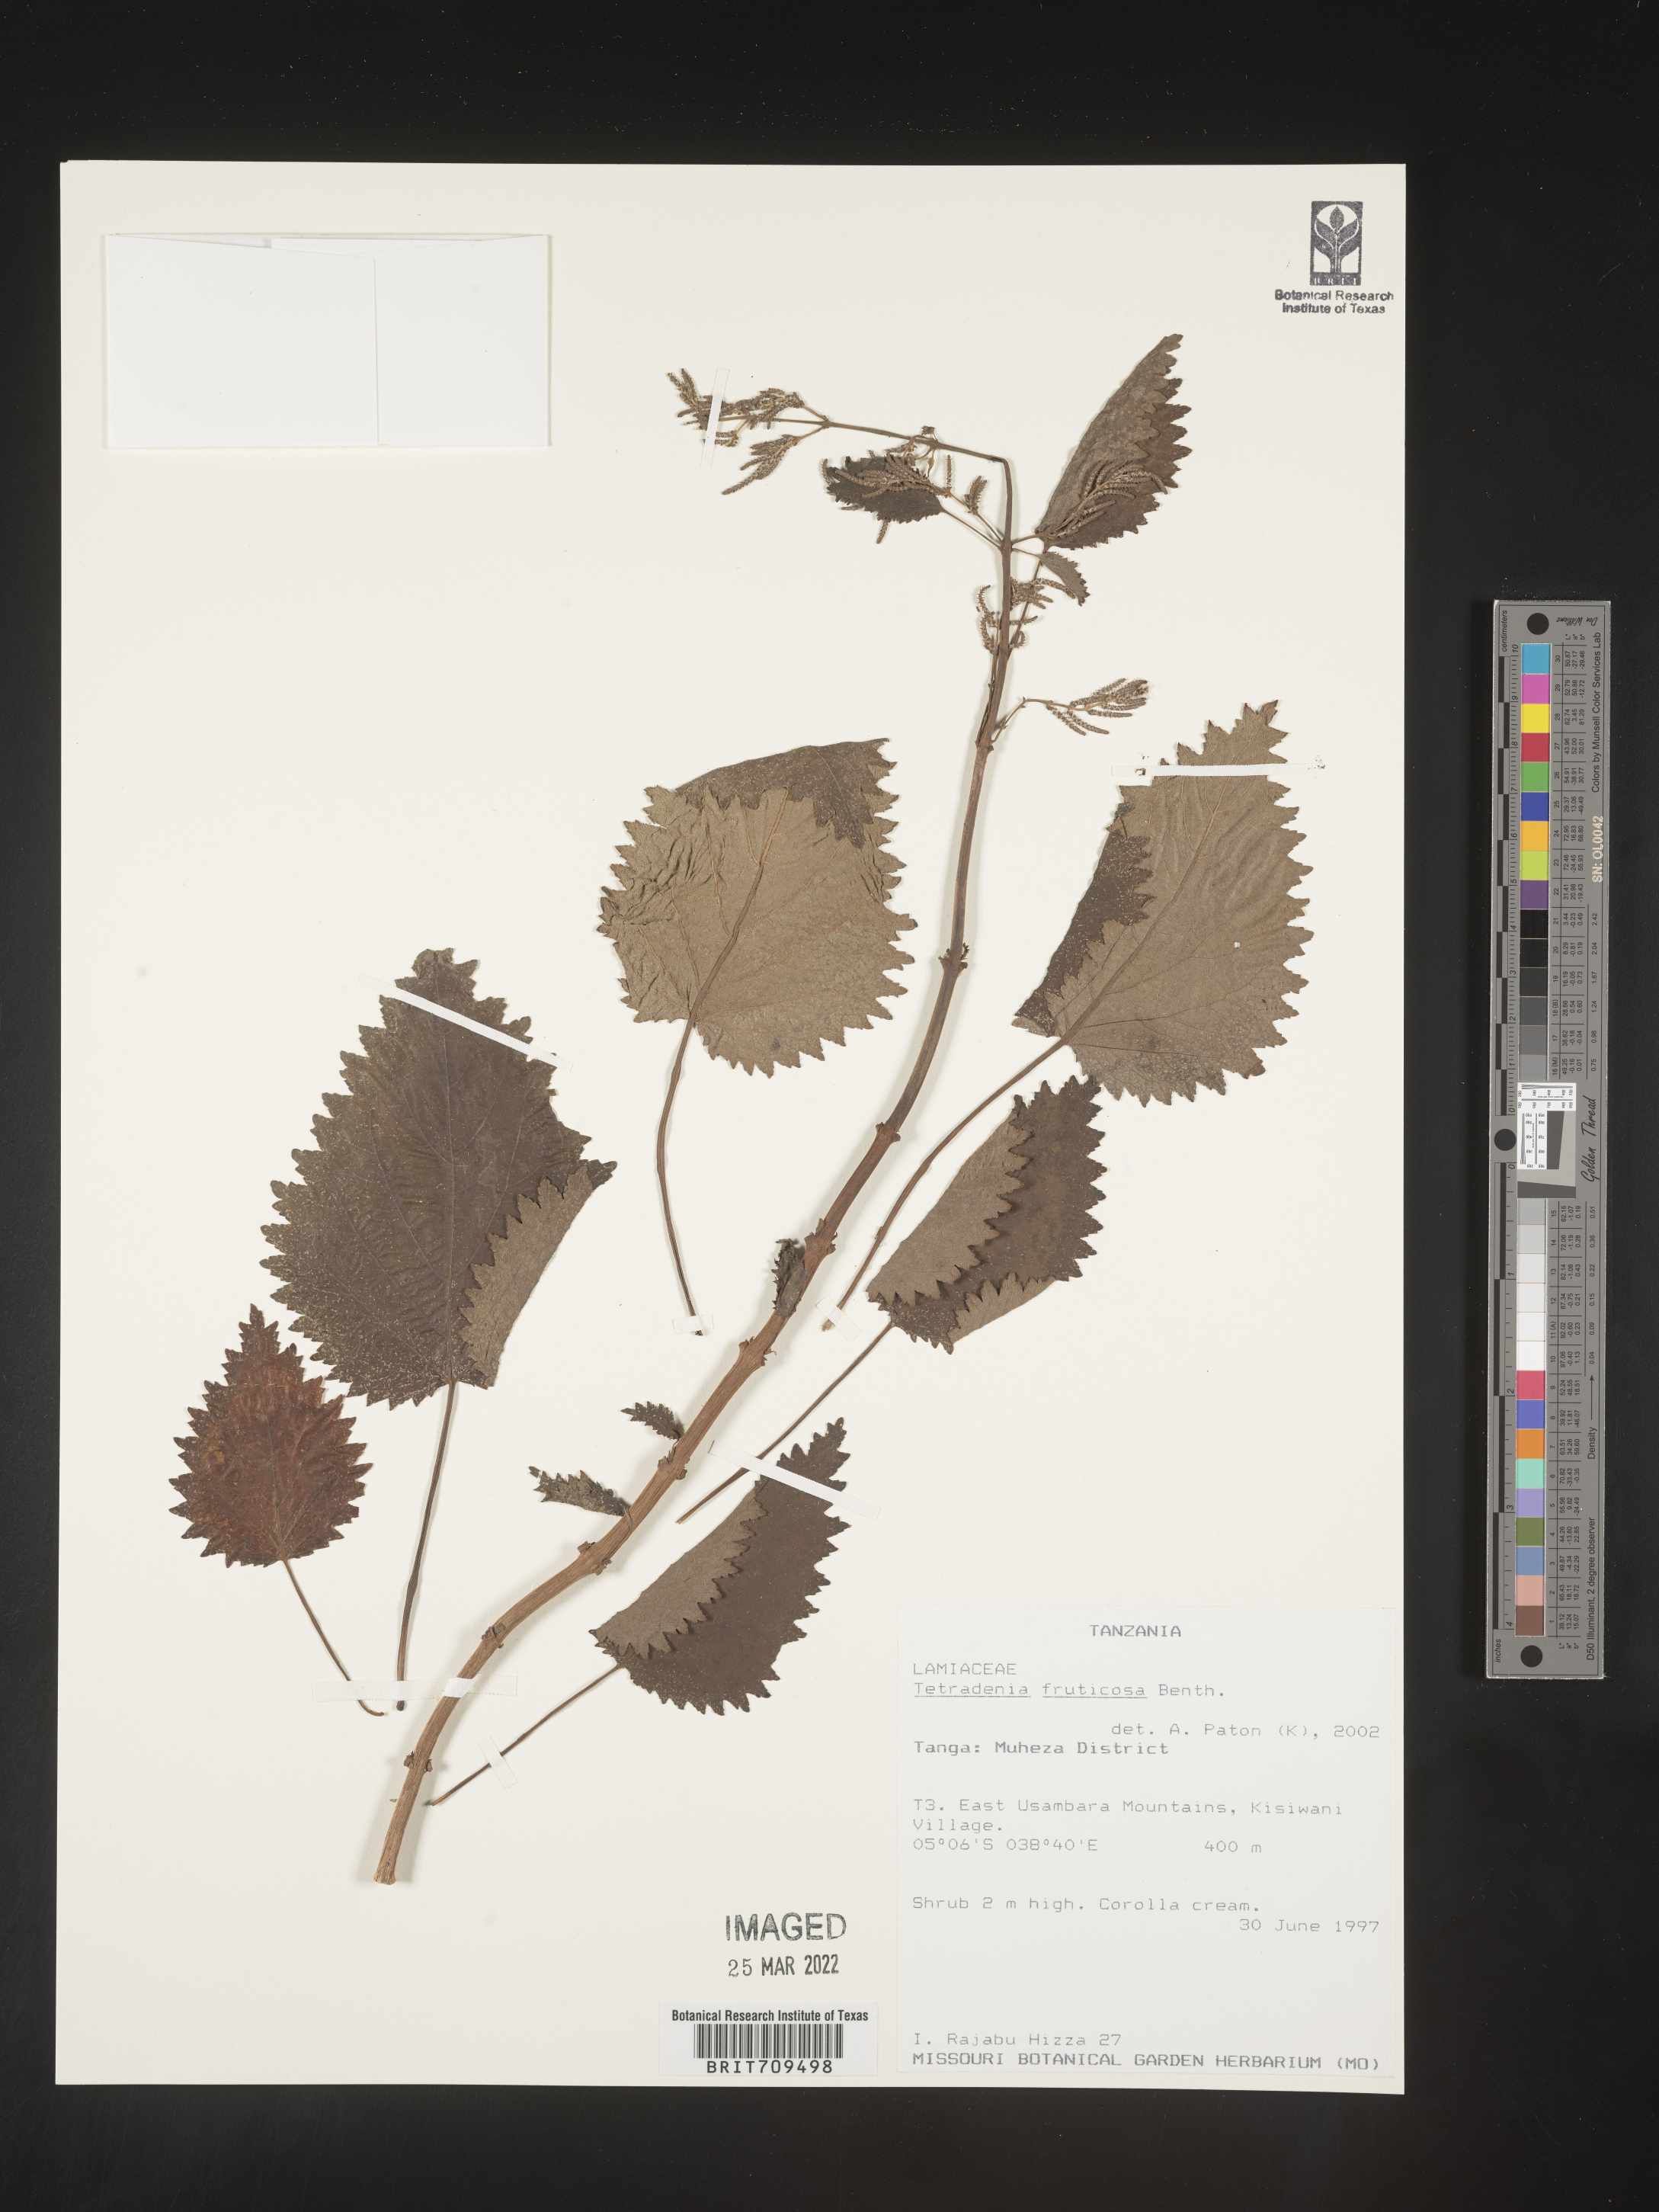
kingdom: Plantae
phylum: Tracheophyta
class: Magnoliopsida
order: Lamiales
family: Lamiaceae
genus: Tetradenia
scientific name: Tetradenia
